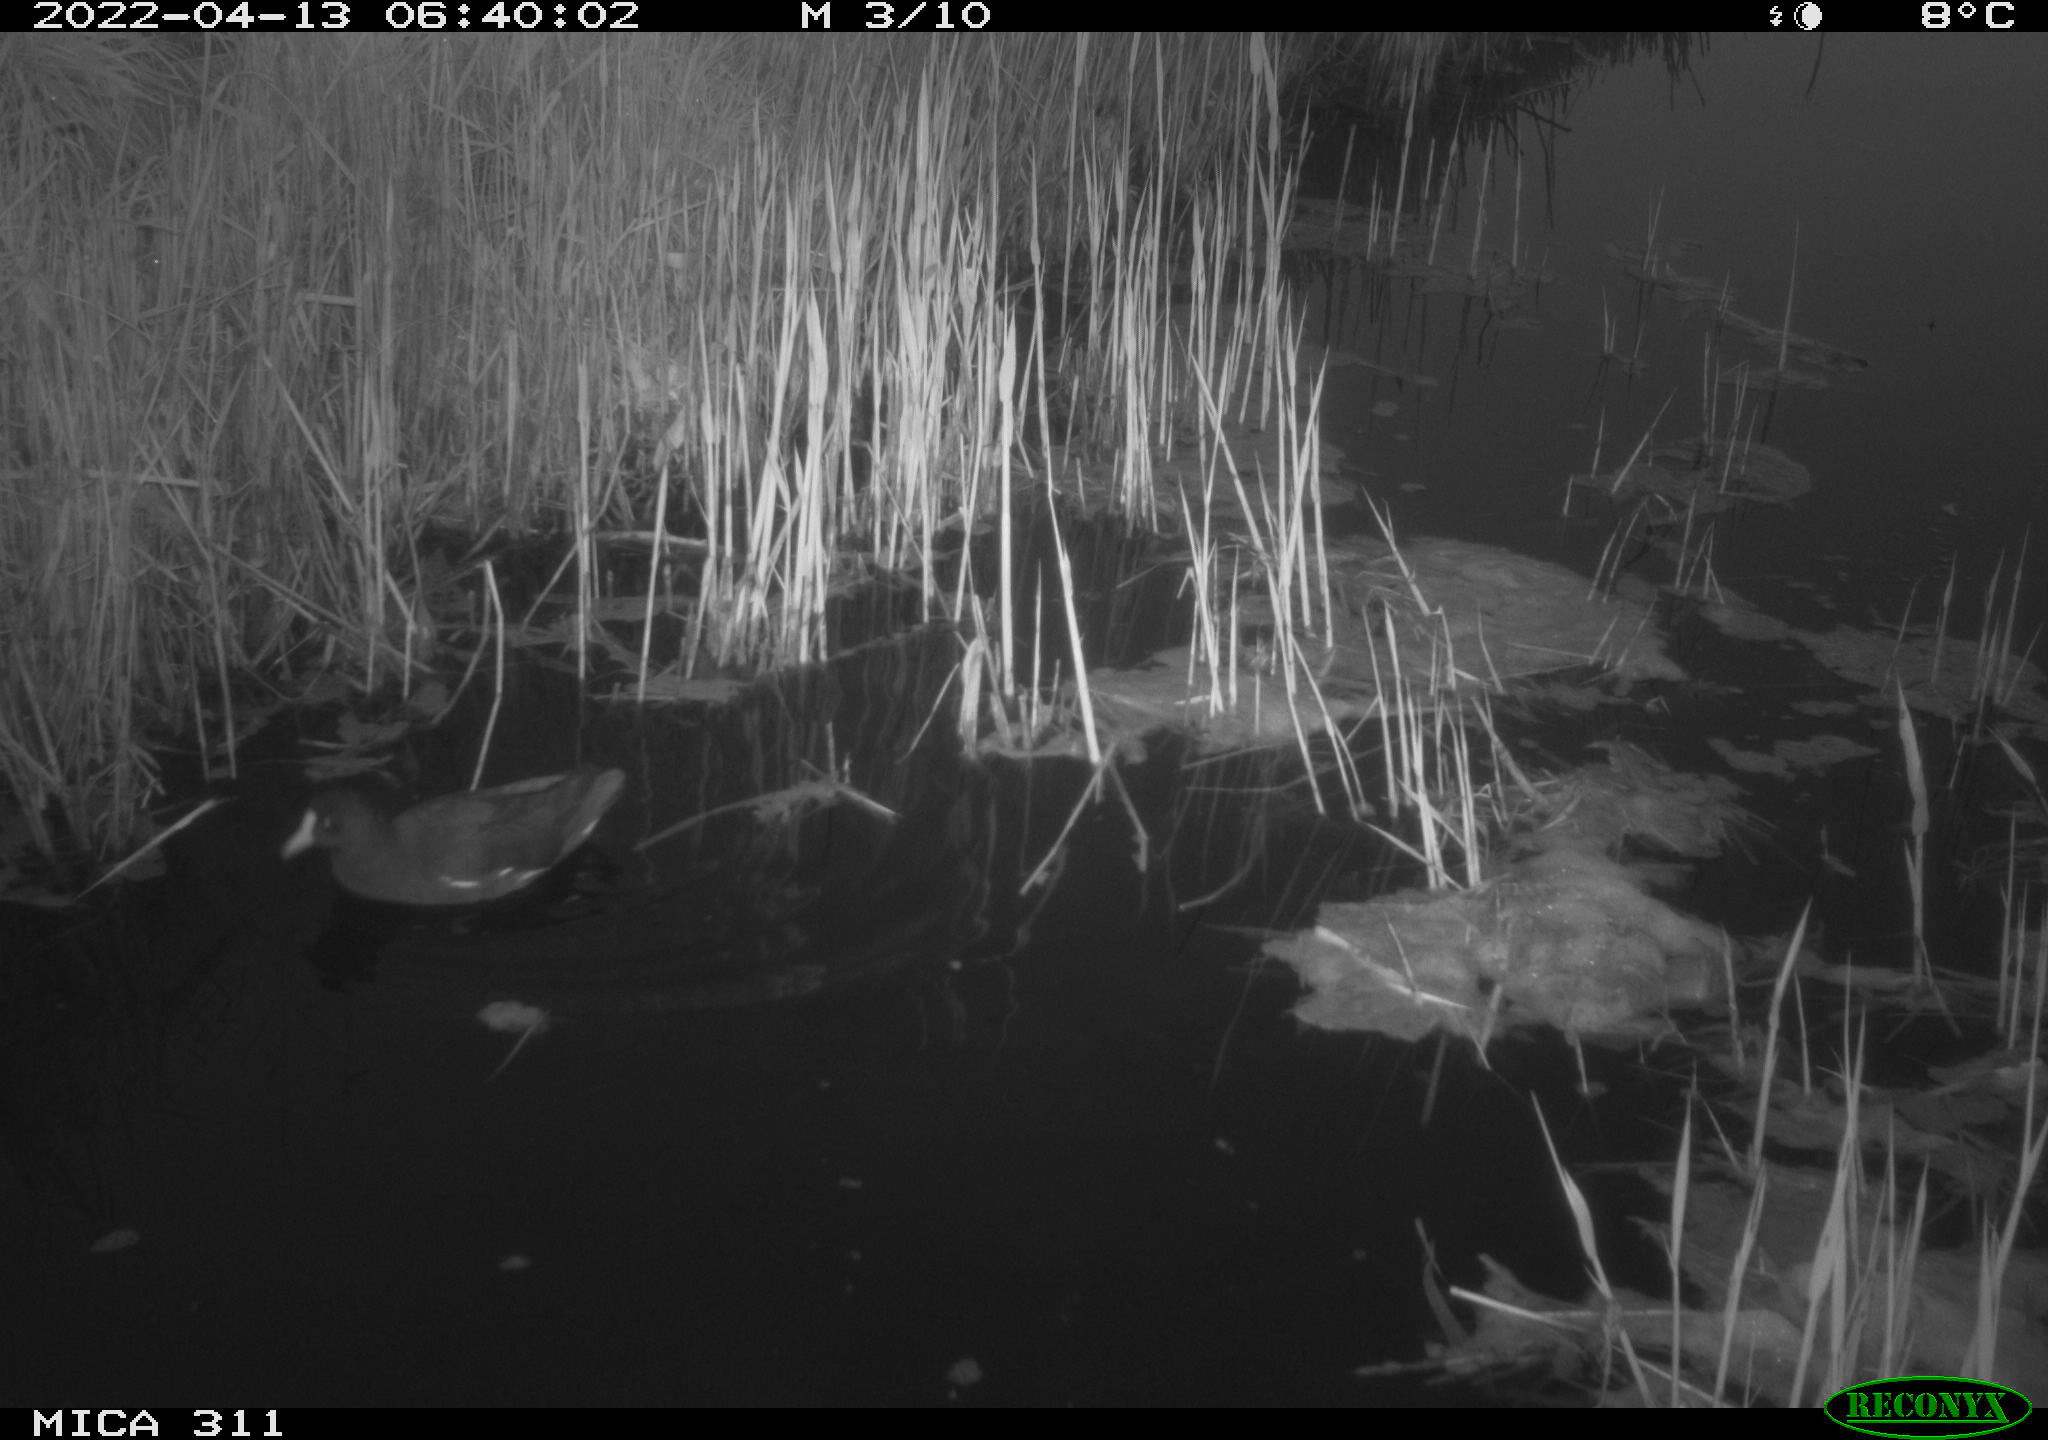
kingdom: Animalia
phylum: Chordata
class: Aves
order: Gruiformes
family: Rallidae
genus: Gallinula
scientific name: Gallinula chloropus
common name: Common moorhen
